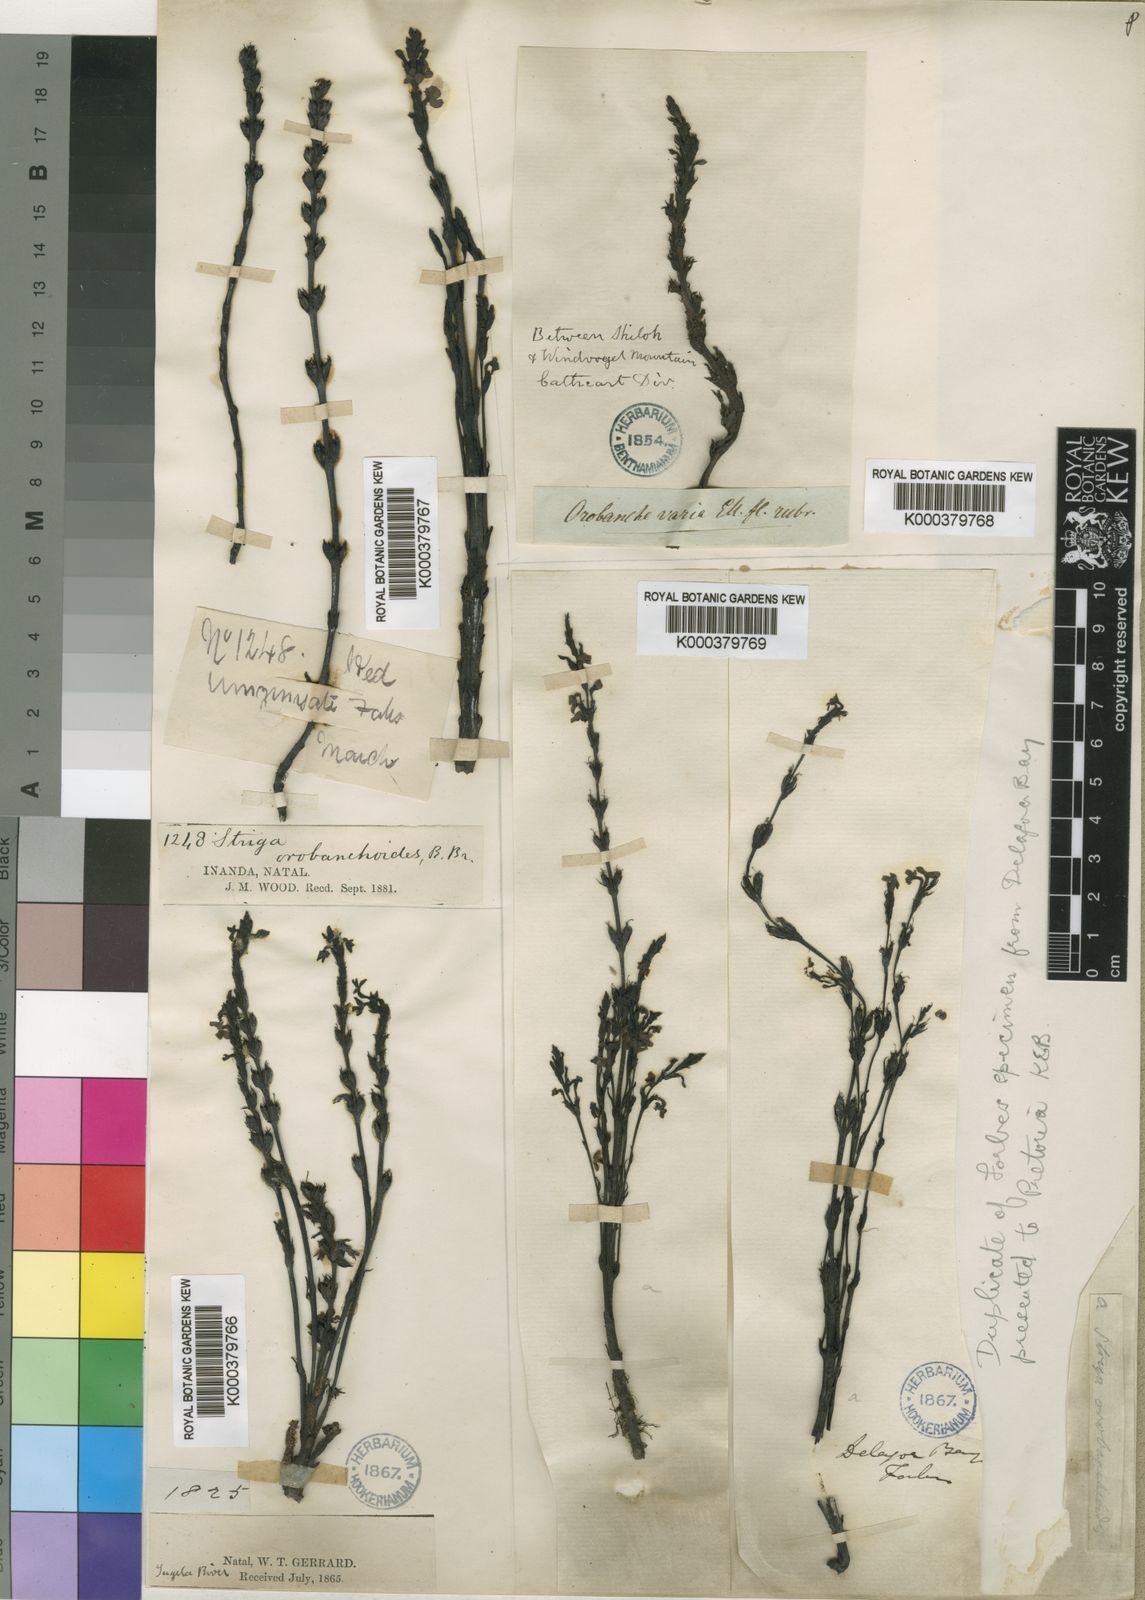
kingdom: Plantae
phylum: Tracheophyta
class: Magnoliopsida
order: Lamiales
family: Orobanchaceae
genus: Striga
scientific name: Striga barthlottii
